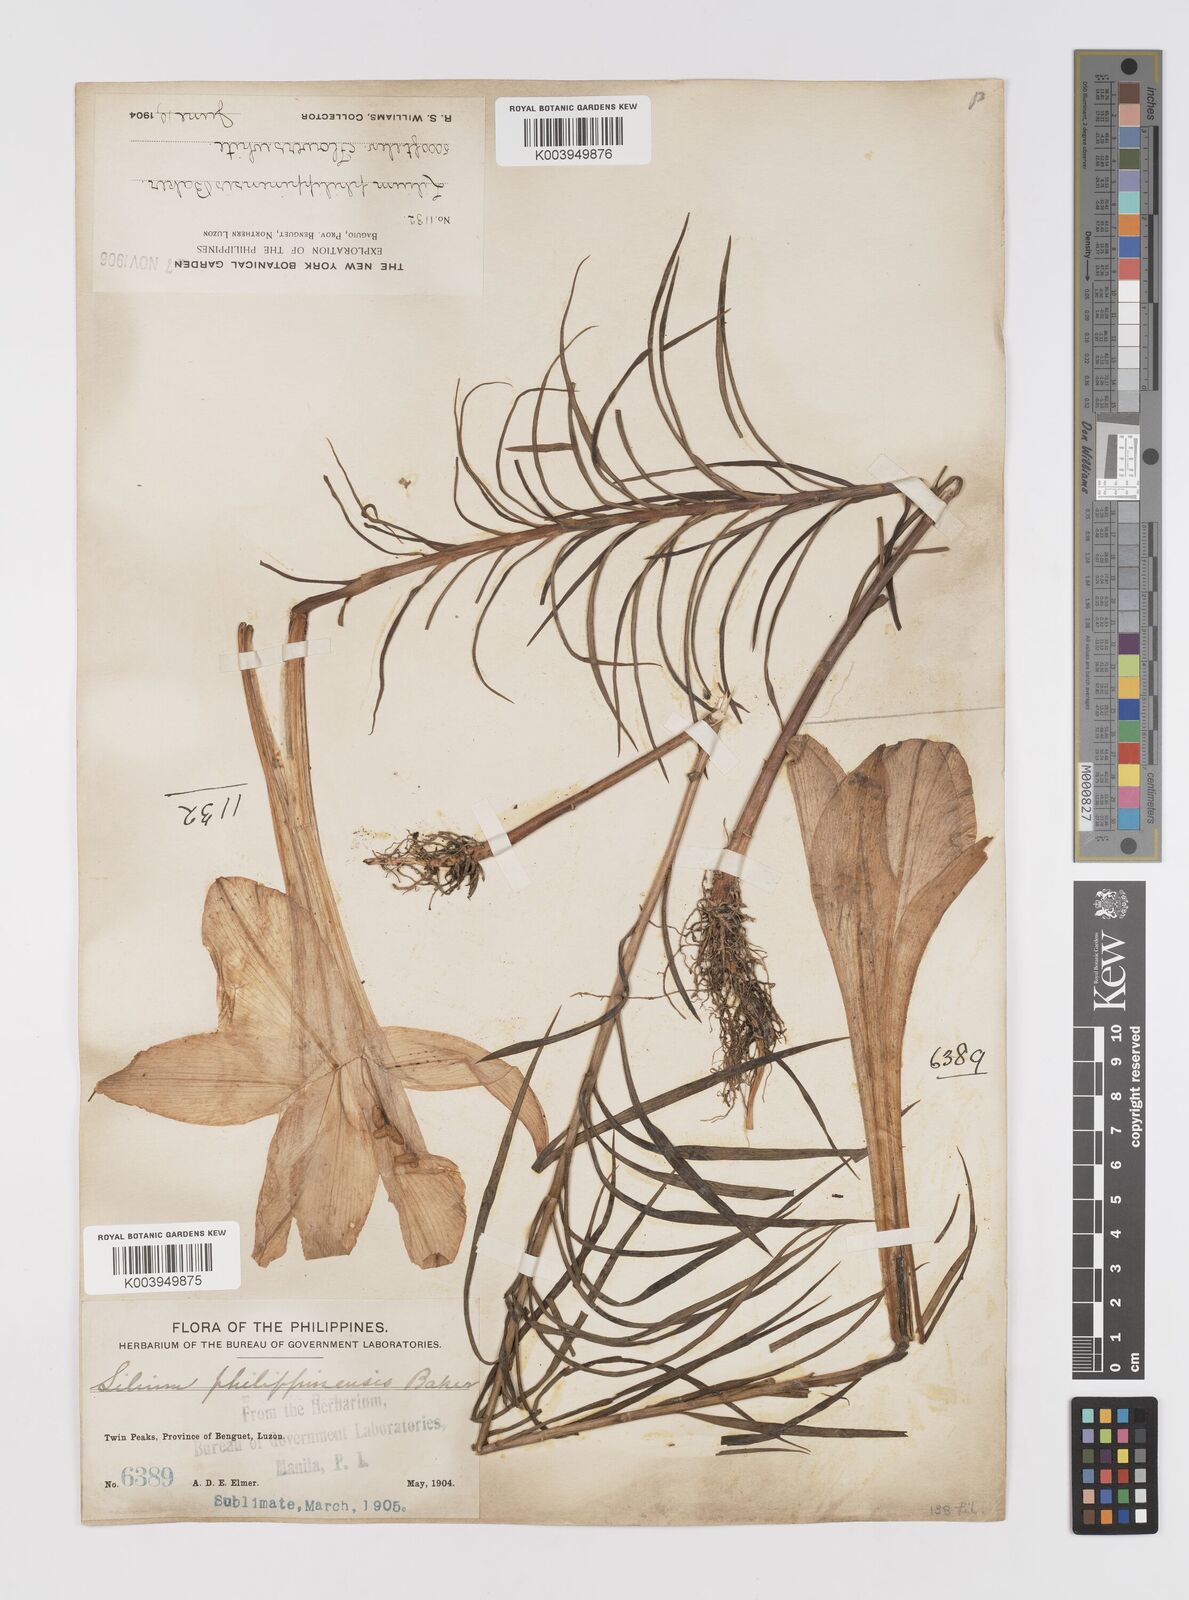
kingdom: Plantae
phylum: Tracheophyta
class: Liliopsida
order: Liliales
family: Liliaceae
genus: Lilium
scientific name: Lilium philippinense
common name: Philippine lily
